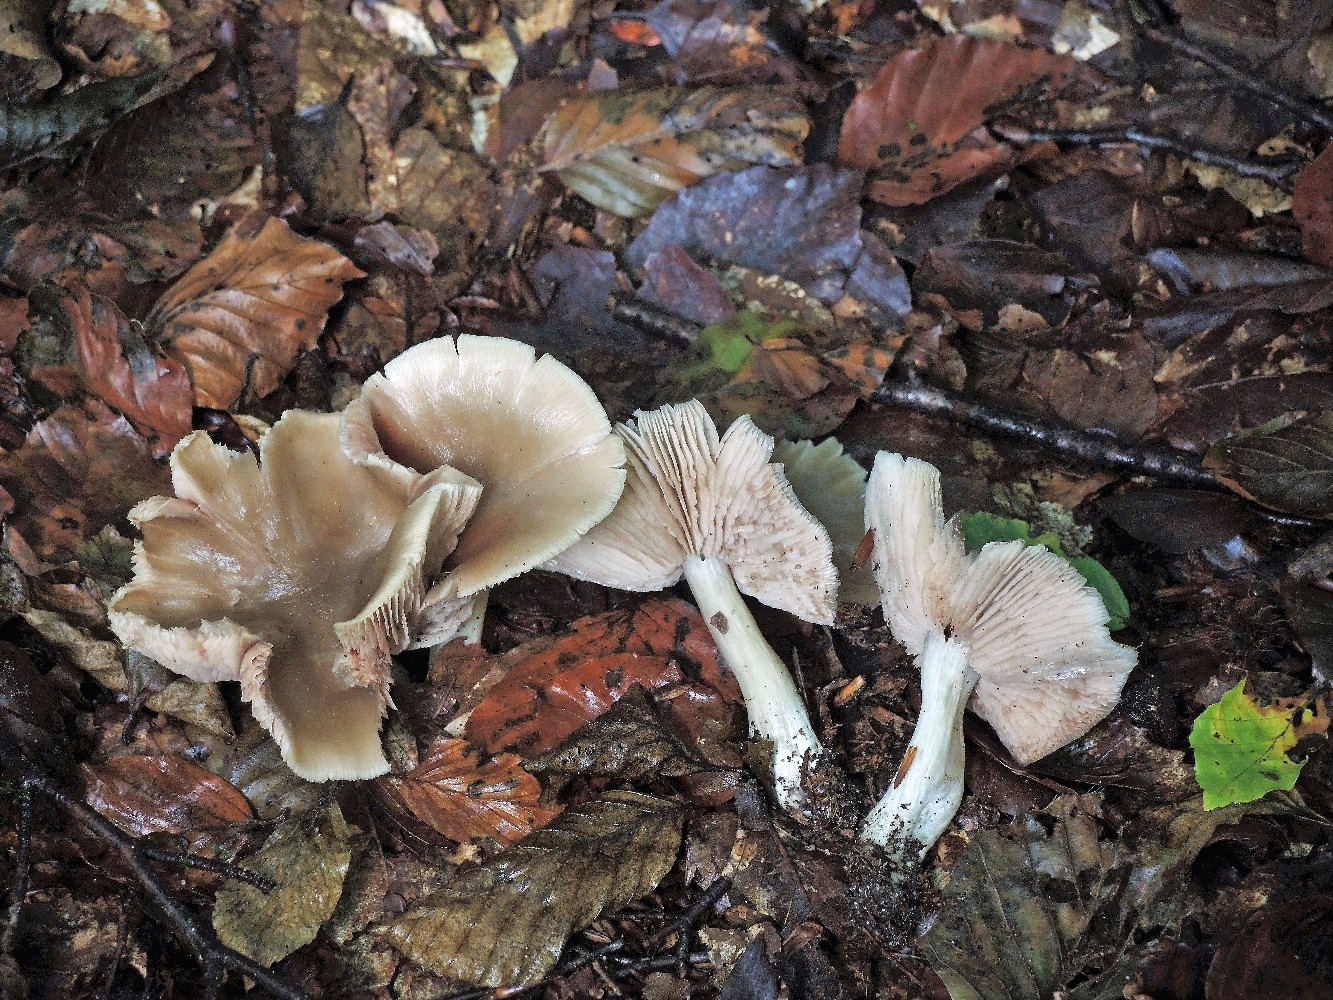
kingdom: Fungi
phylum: Basidiomycota
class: Agaricomycetes
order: Agaricales
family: Entolomataceae
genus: Entoloma
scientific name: Entoloma rhodopolium
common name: skov-rødblad
